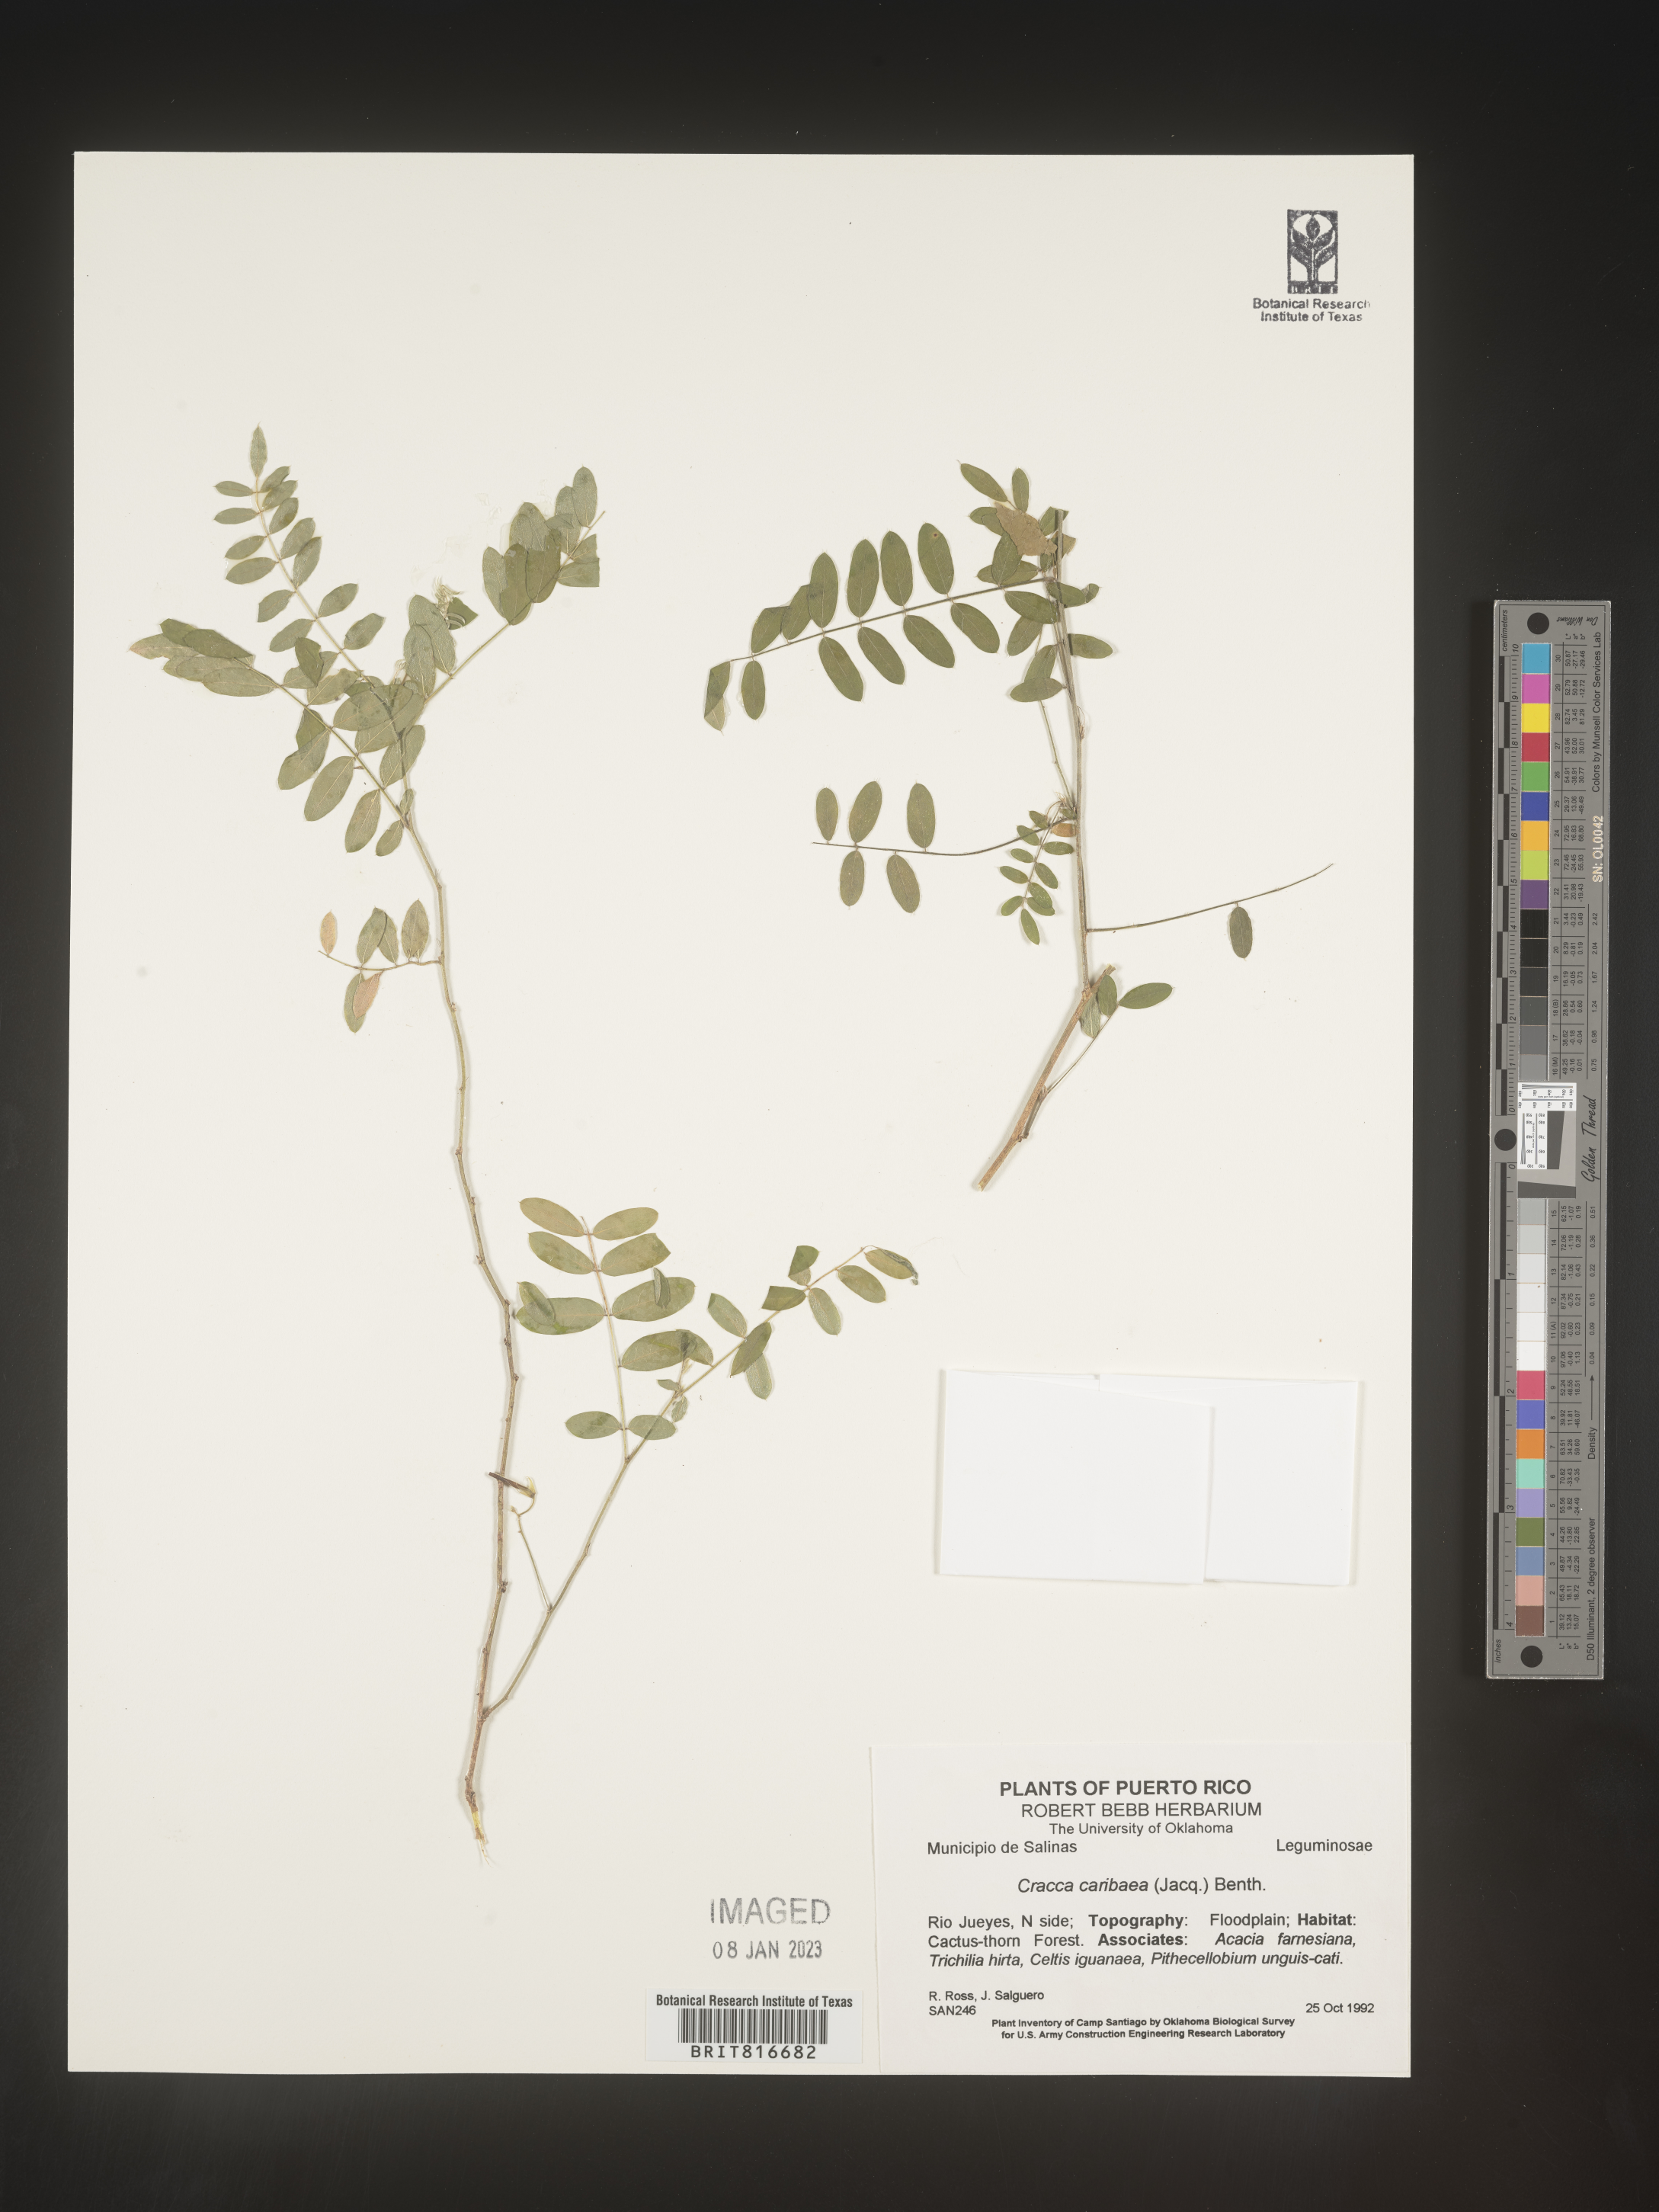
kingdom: Plantae
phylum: Tracheophyta
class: Magnoliopsida
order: Fabales
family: Fabaceae
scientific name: Fabaceae
